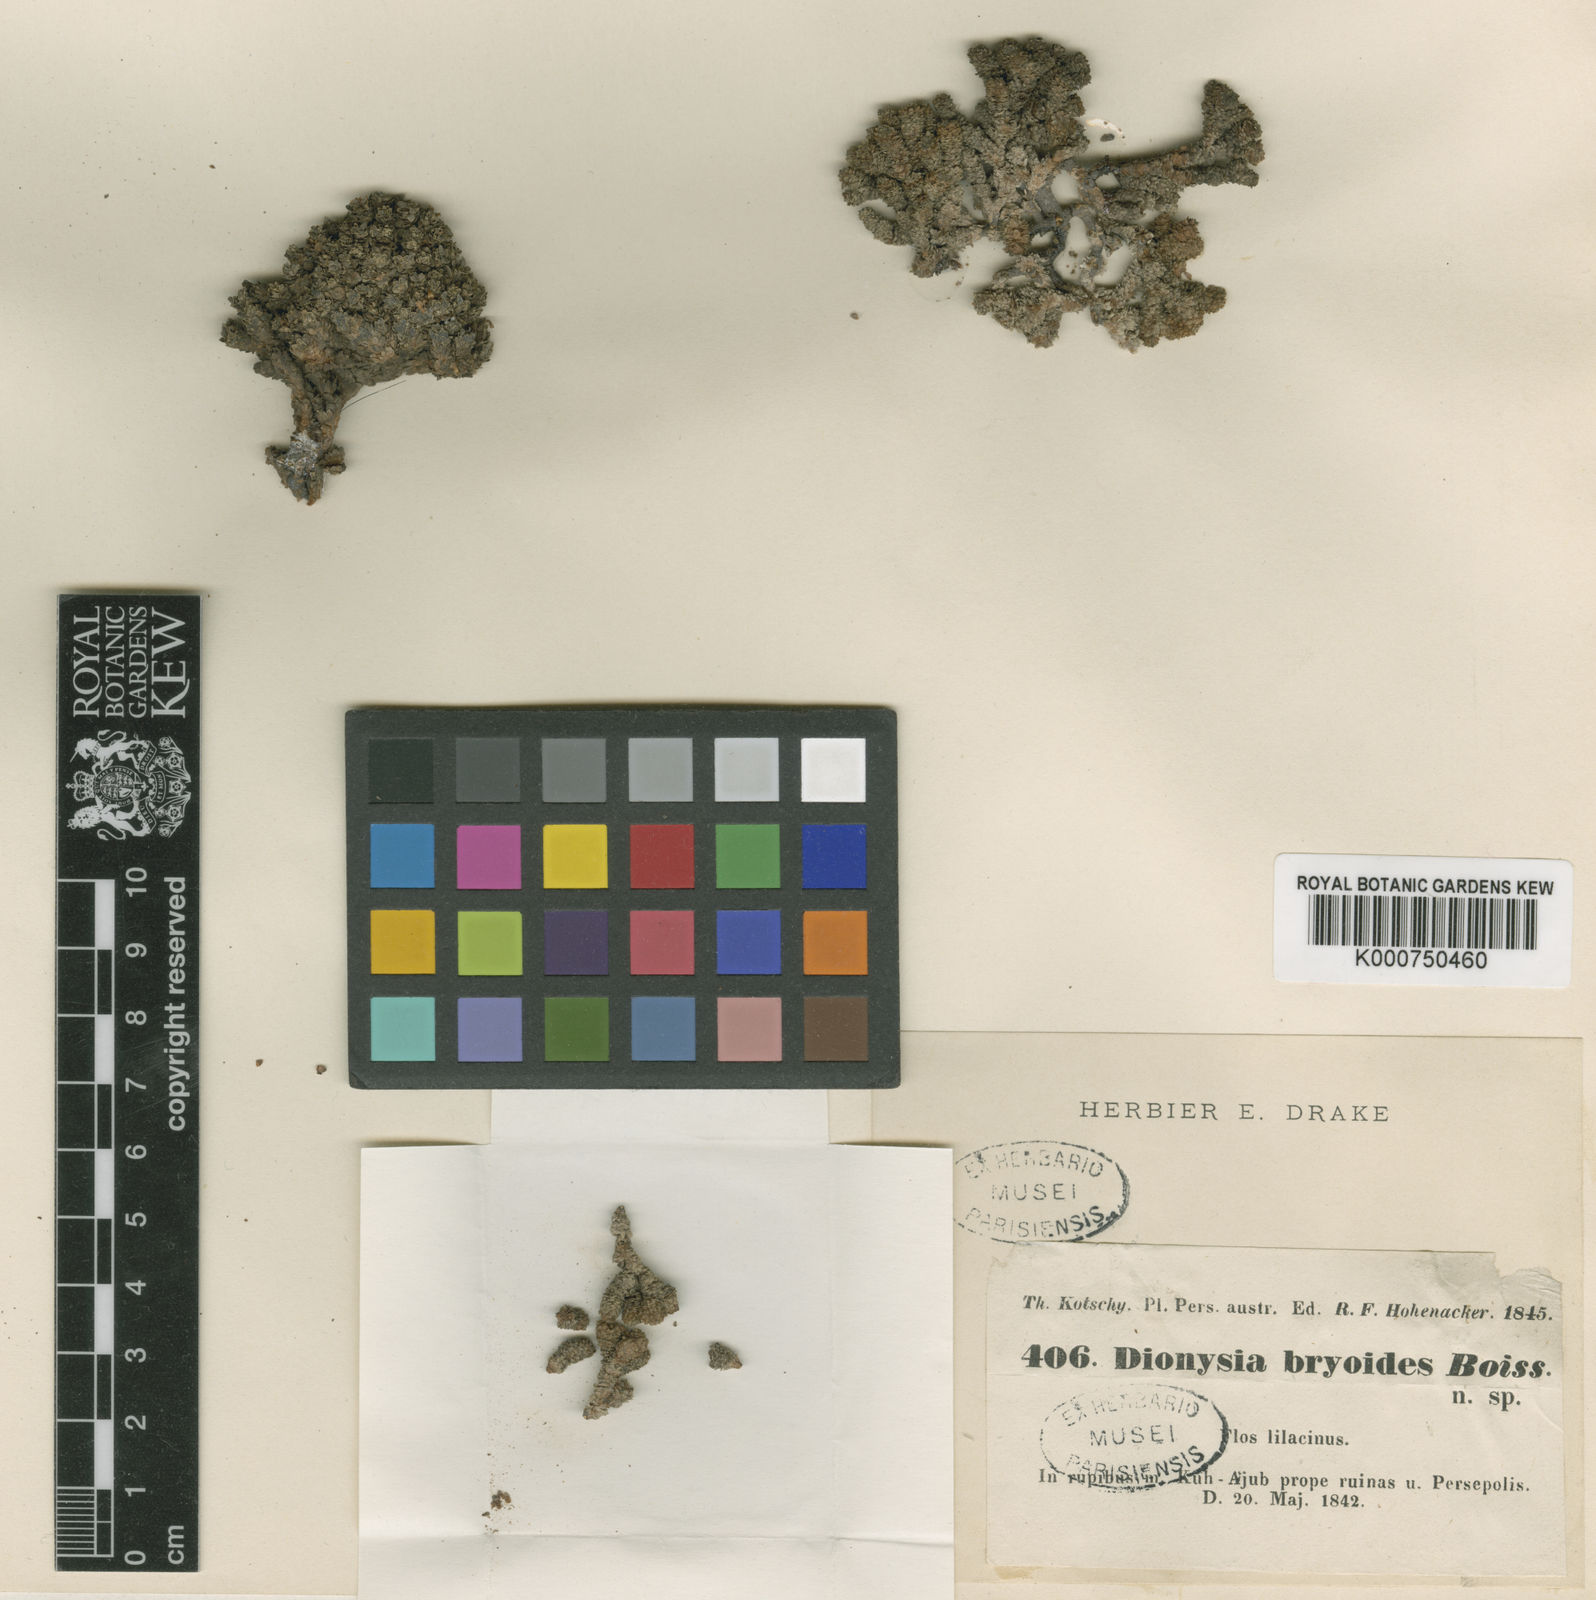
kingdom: Plantae
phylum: Tracheophyta
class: Magnoliopsida
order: Ericales
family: Primulaceae
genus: Dionysia
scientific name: Dionysia bryoides
